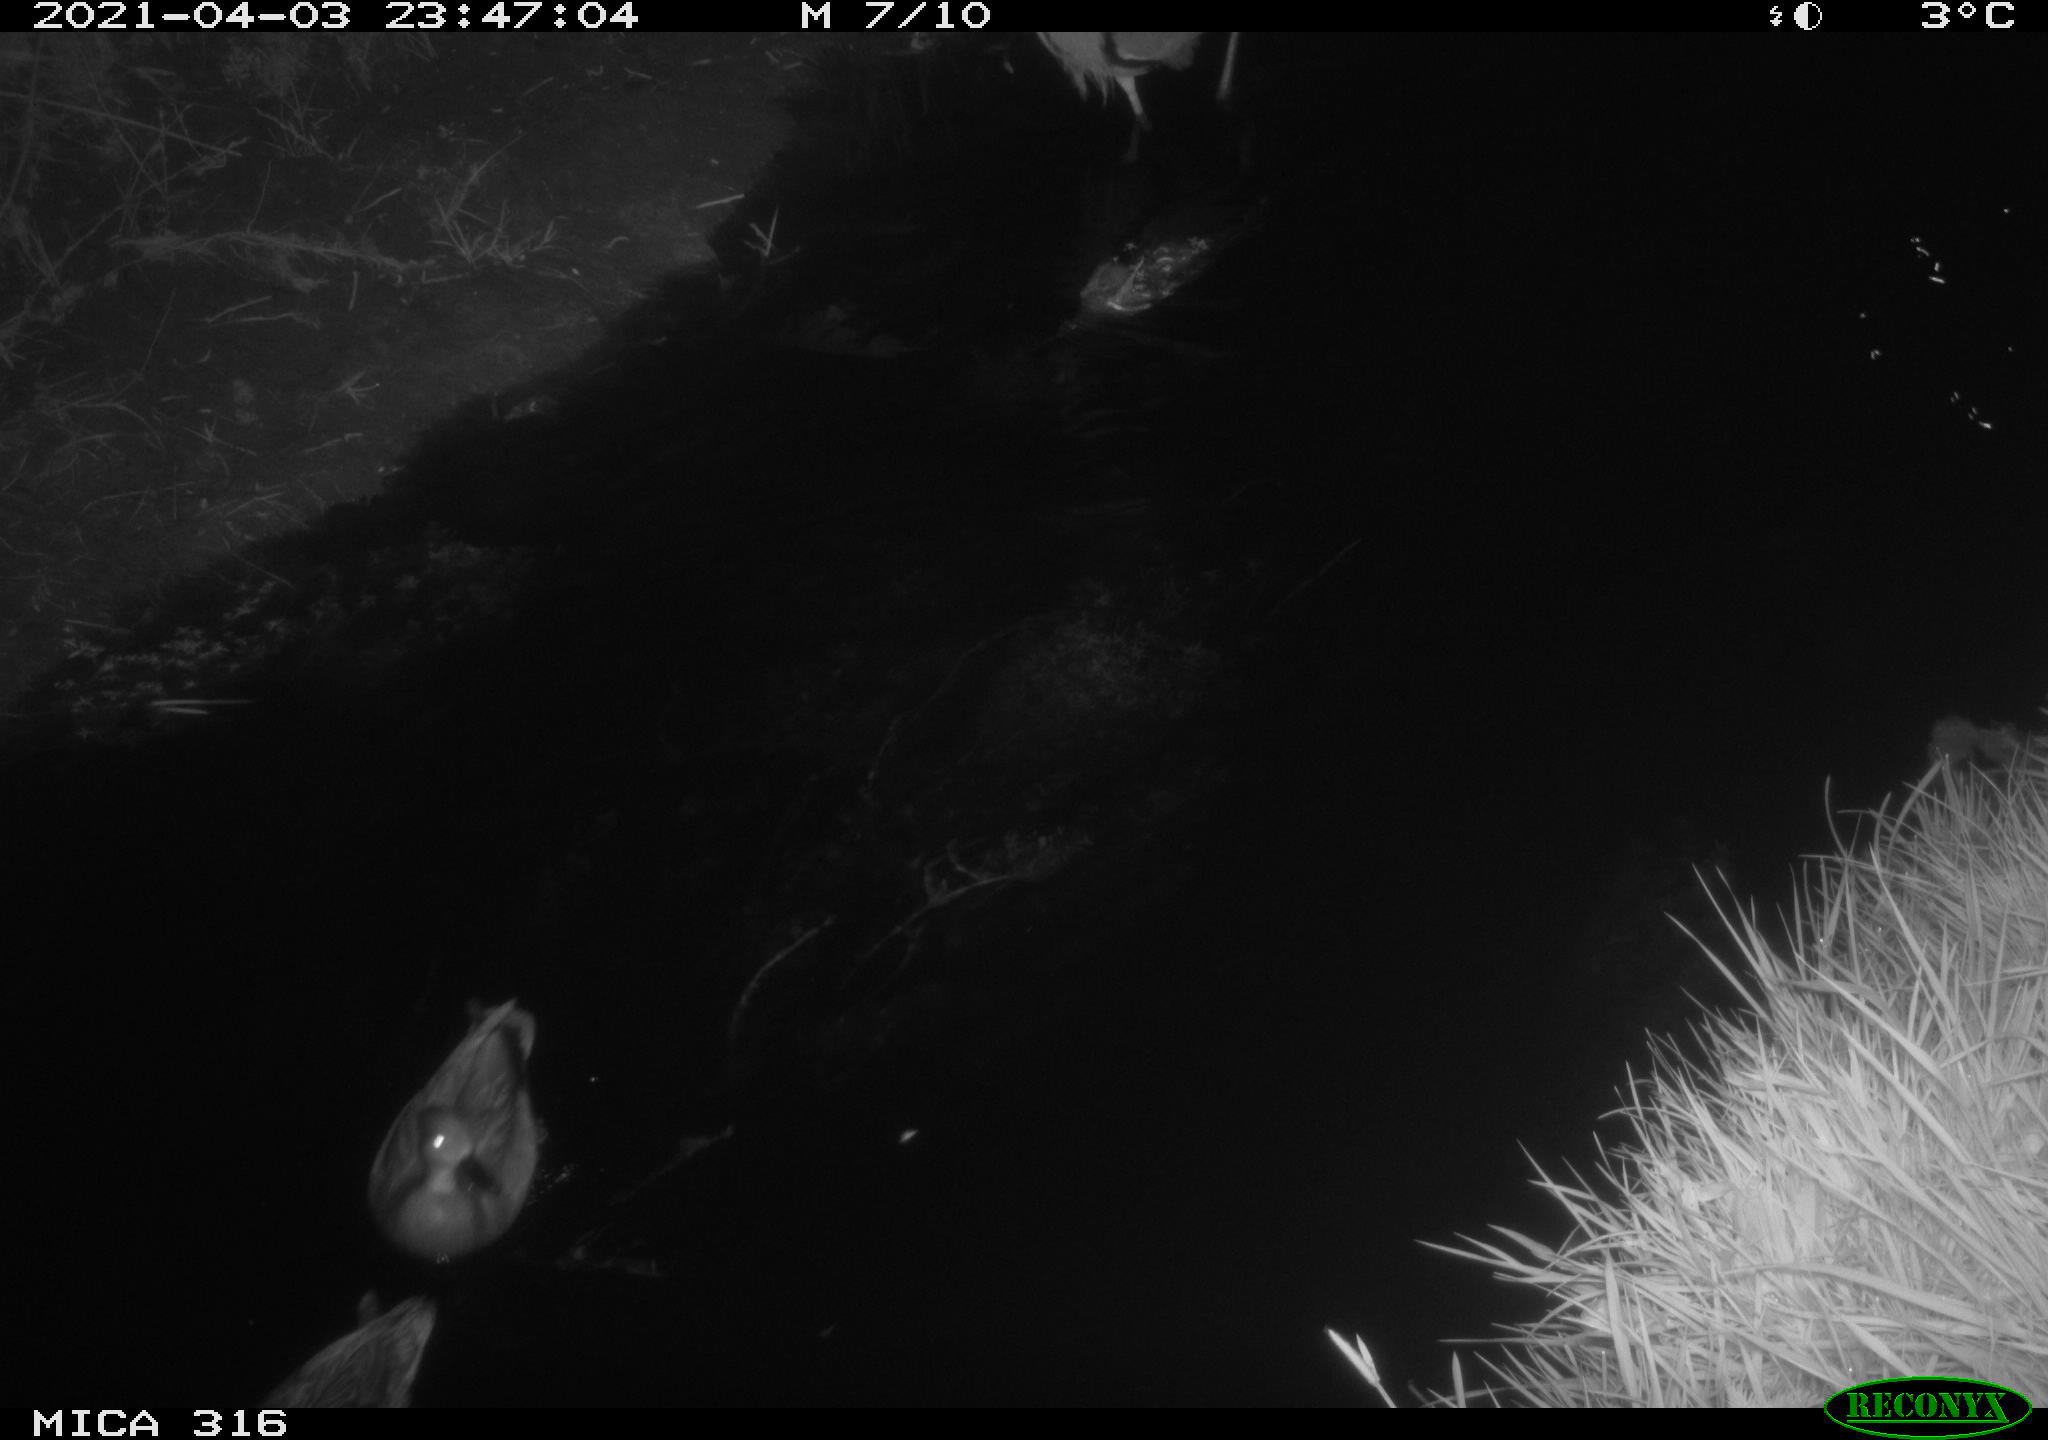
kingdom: Animalia
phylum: Chordata
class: Aves
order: Pelecaniformes
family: Ardeidae
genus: Ardea
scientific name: Ardea
